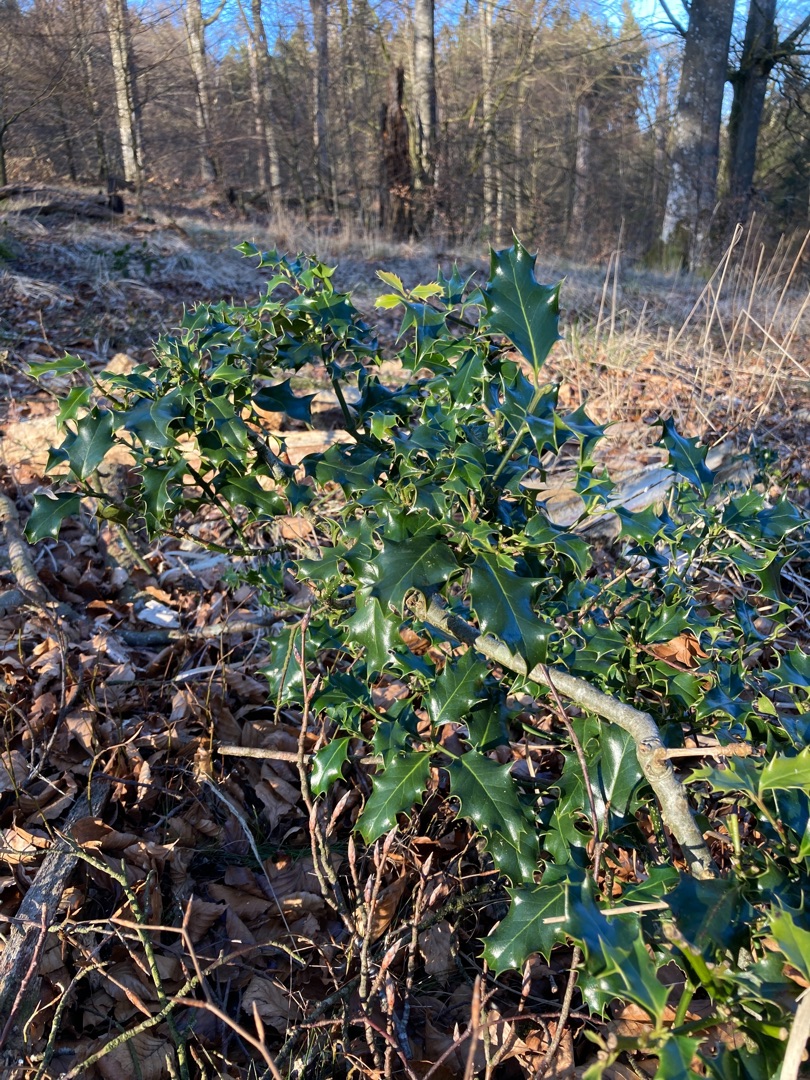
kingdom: Plantae
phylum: Tracheophyta
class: Magnoliopsida
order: Aquifoliales
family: Aquifoliaceae
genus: Ilex
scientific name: Ilex aquifolium
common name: Kristtorn
